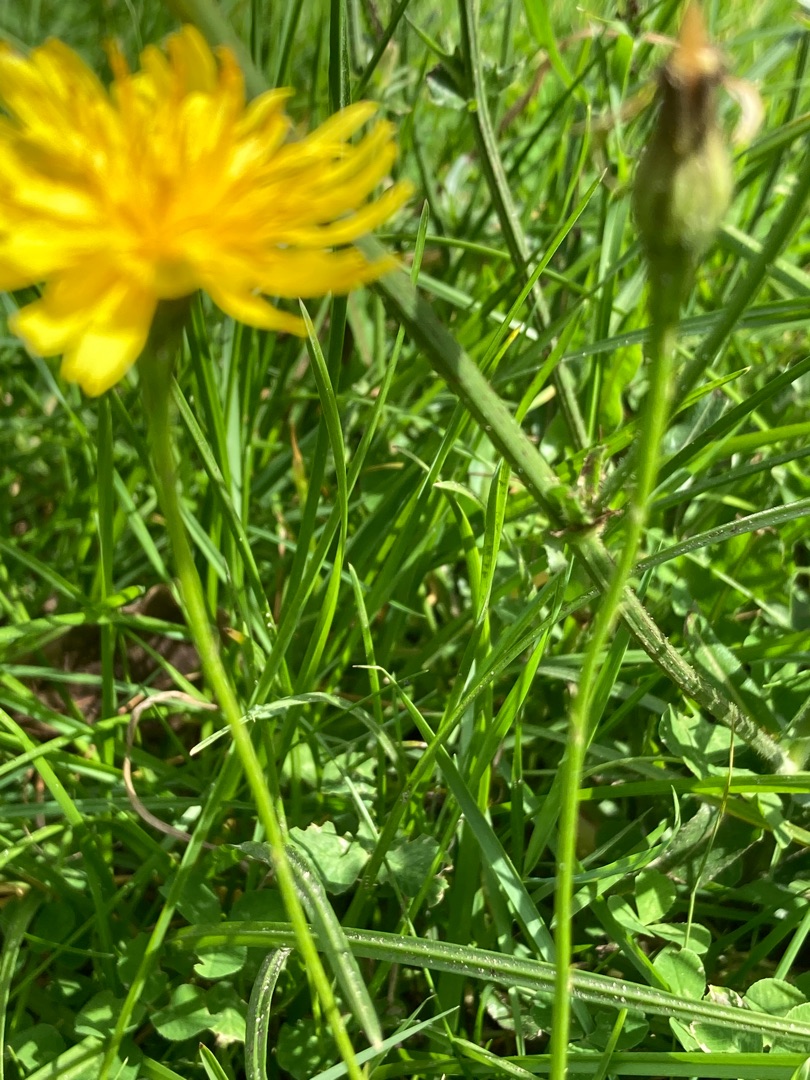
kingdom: Plantae
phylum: Tracheophyta
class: Magnoliopsida
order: Asterales
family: Asteraceae
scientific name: Asteraceae
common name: Kurvblomstfamilien
